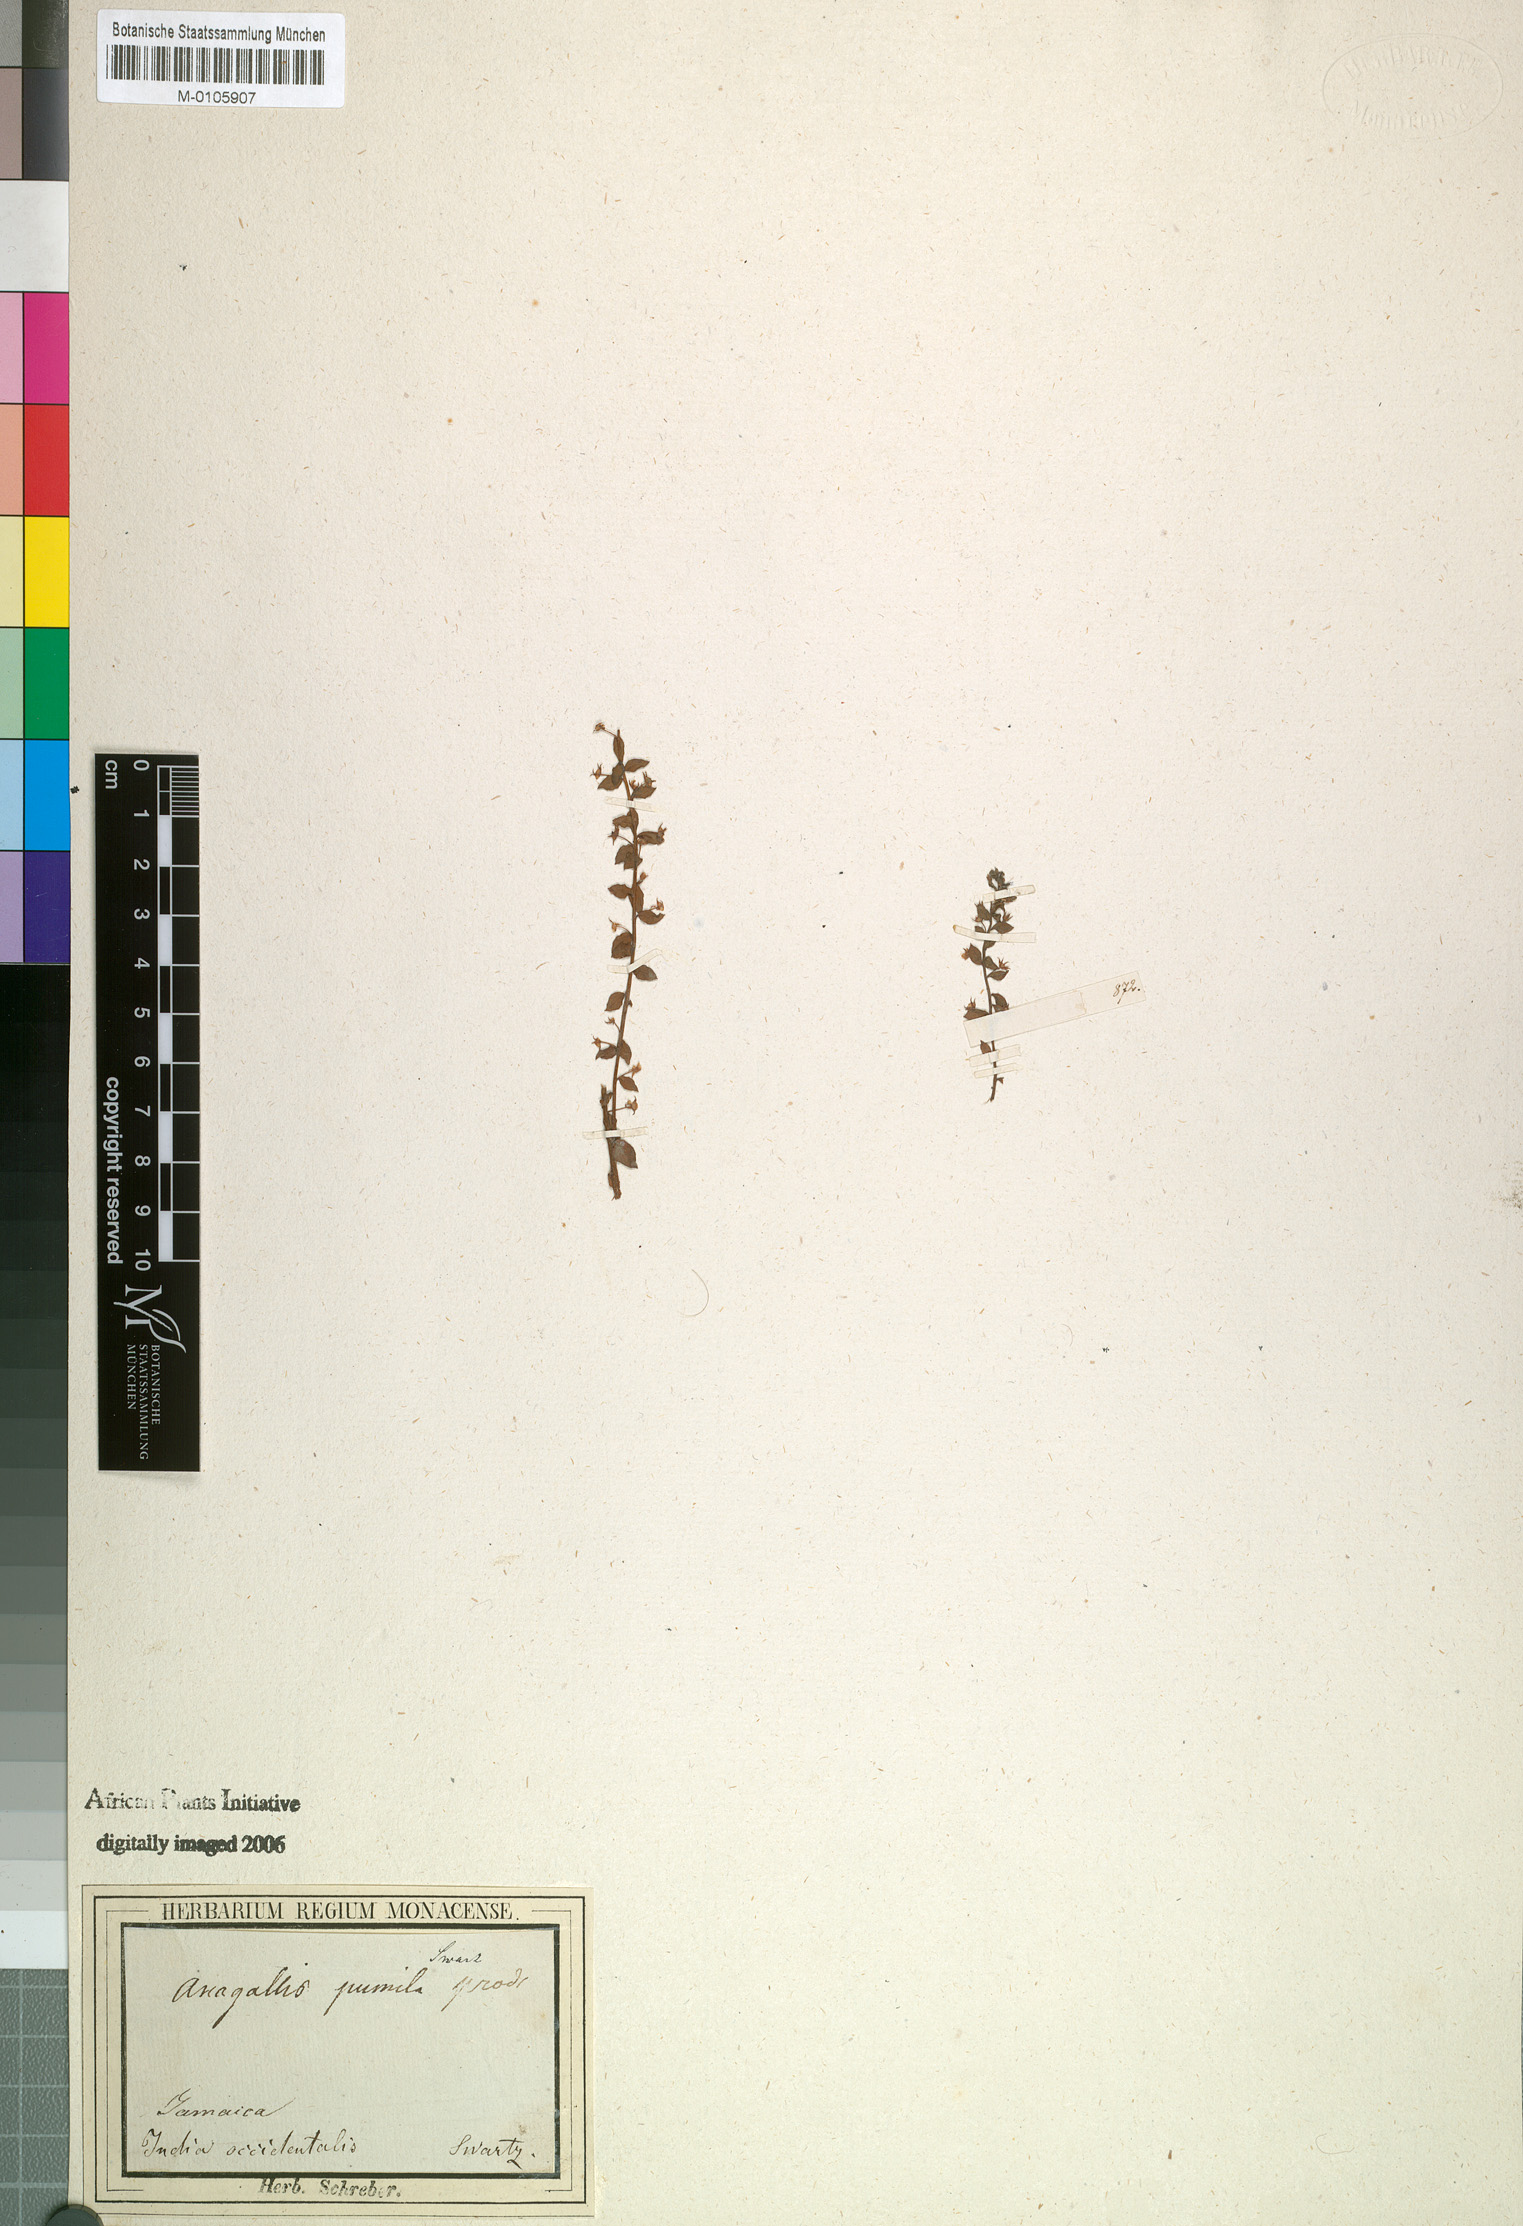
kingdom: Plantae
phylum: Tracheophyta
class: Magnoliopsida
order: Ericales
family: Primulaceae
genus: Lysimachia
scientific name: Lysimachia ovalis
